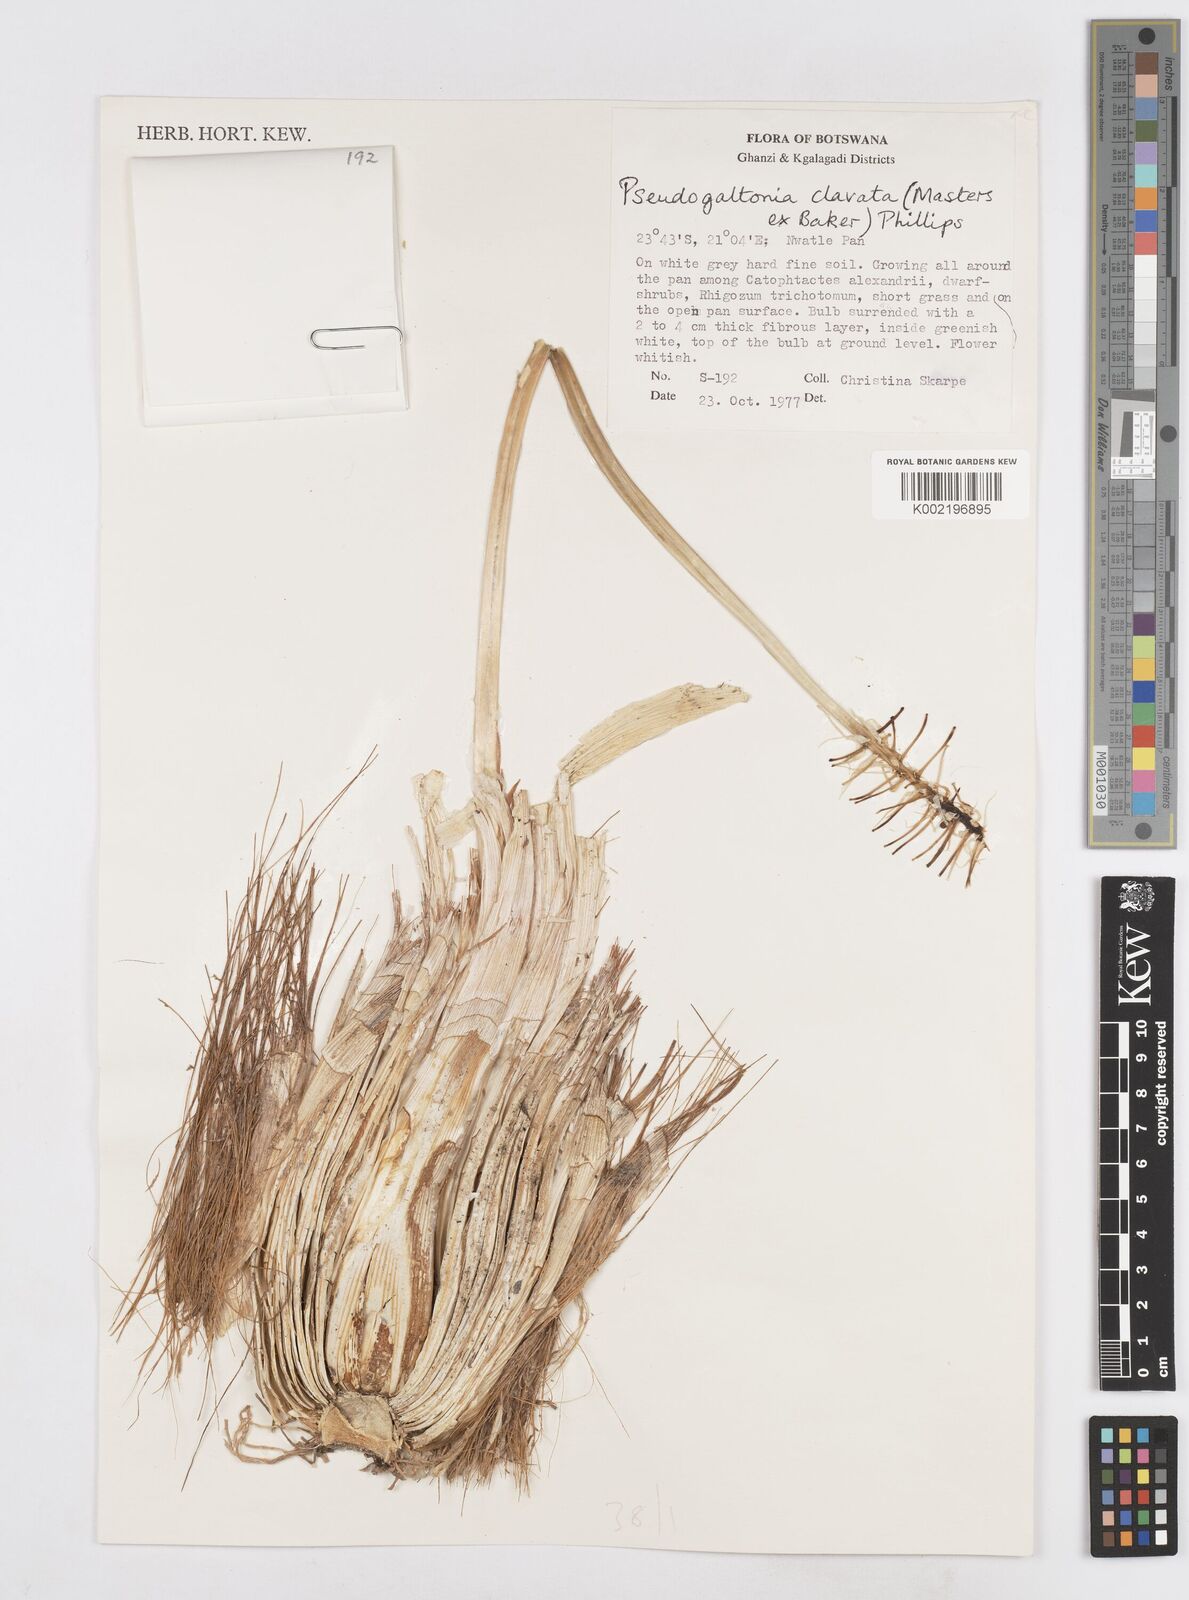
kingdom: Plantae
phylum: Tracheophyta
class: Liliopsida
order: Asparagales
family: Asparagaceae
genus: Pseudogaltonia
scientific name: Pseudogaltonia clavata
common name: South west african slangkop
